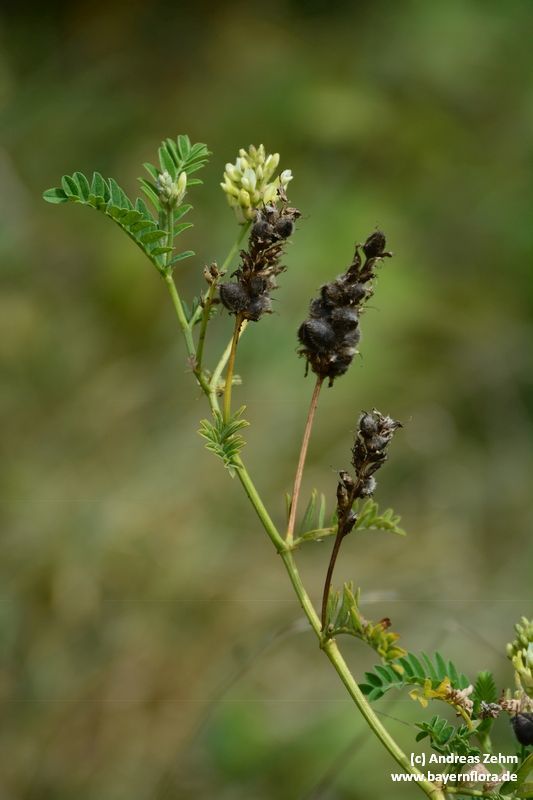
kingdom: Plantae
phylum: Tracheophyta
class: Magnoliopsida
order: Fabales
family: Fabaceae
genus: Astragalus
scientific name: Astragalus cicer
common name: Chick-pea milk-vetch
